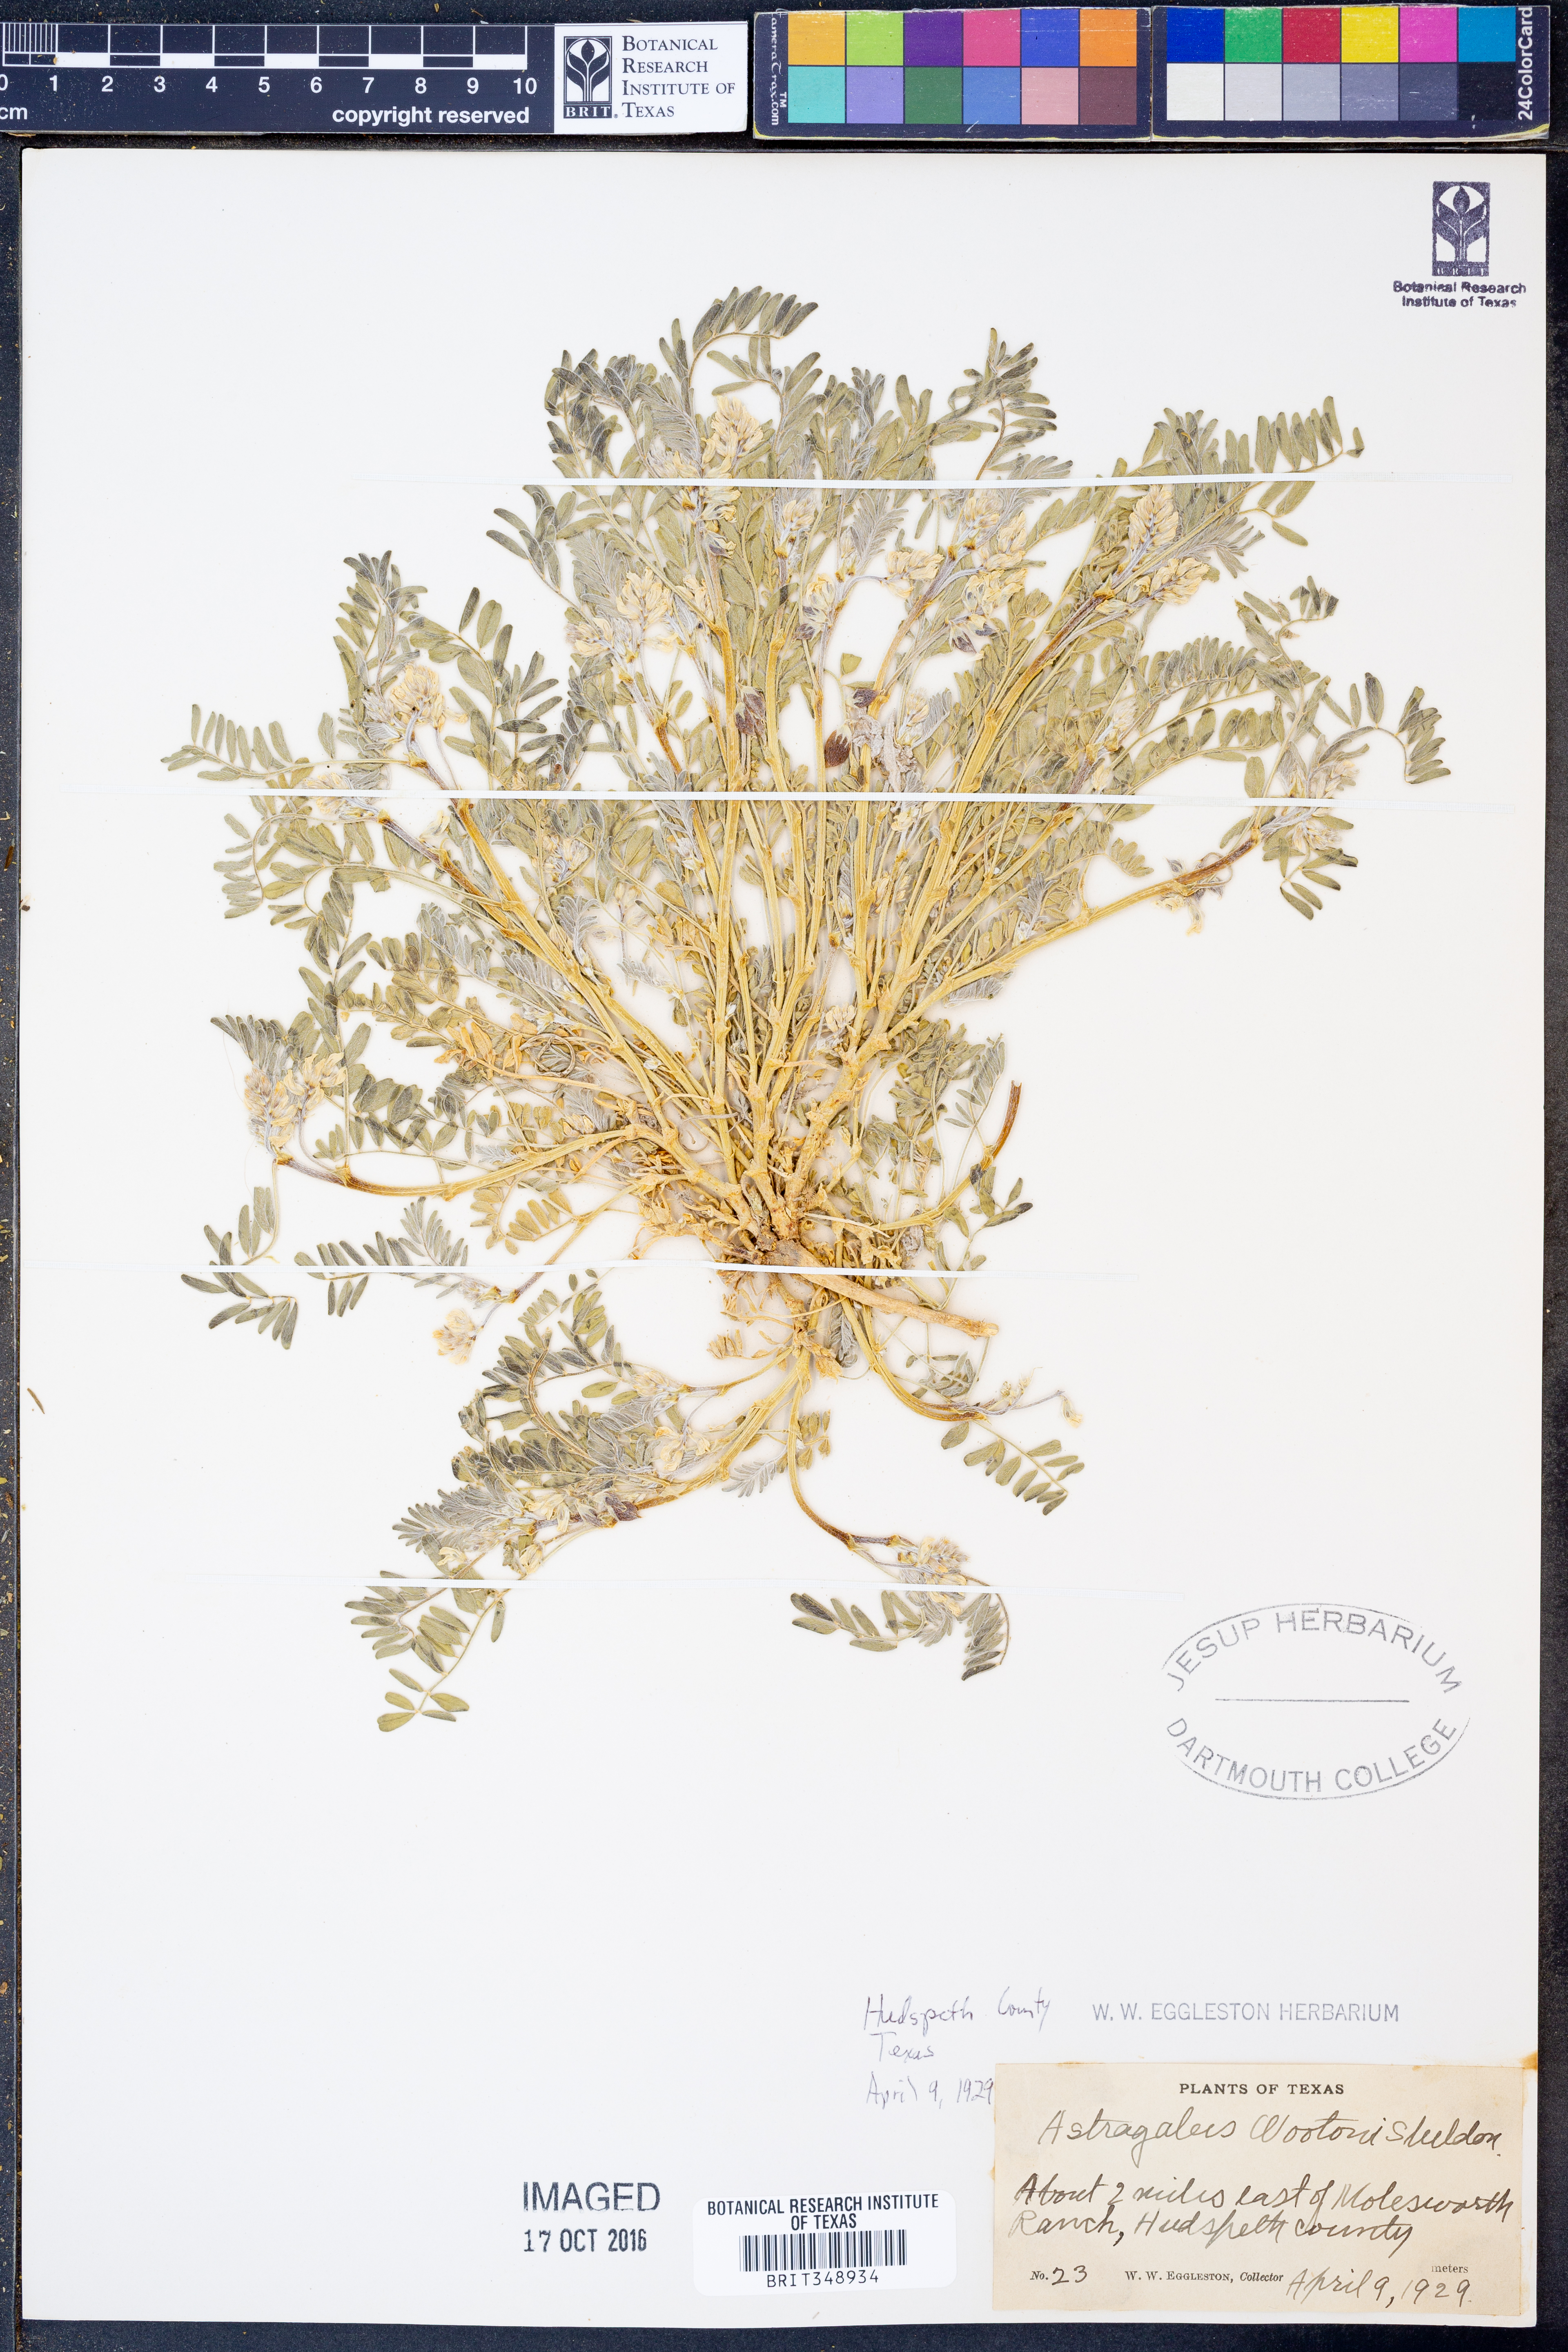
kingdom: Plantae
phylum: Tracheophyta
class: Magnoliopsida
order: Fabales
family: Fabaceae
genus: Astragalus
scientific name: Astragalus wootonii
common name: Wooton's milk-vetch
